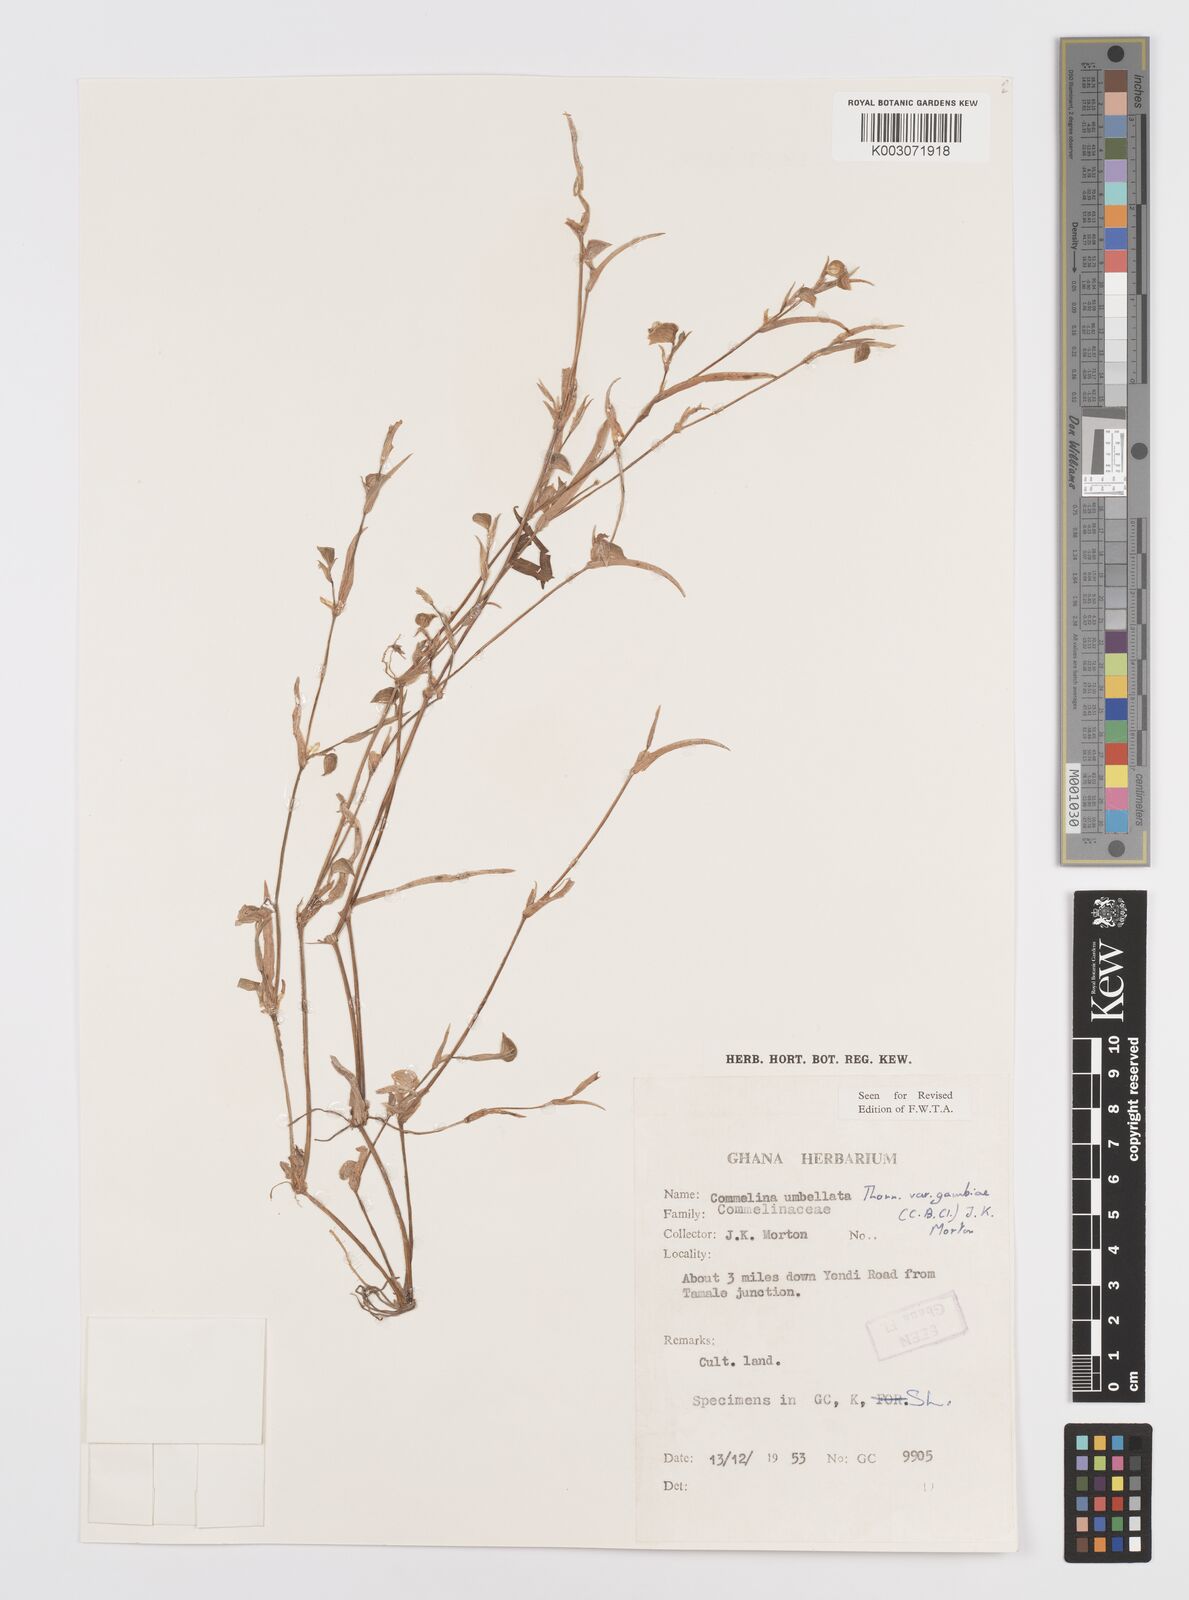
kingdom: Plantae
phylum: Tracheophyta
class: Liliopsida
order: Commelinales
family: Commelinaceae
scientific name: Commelinaceae
